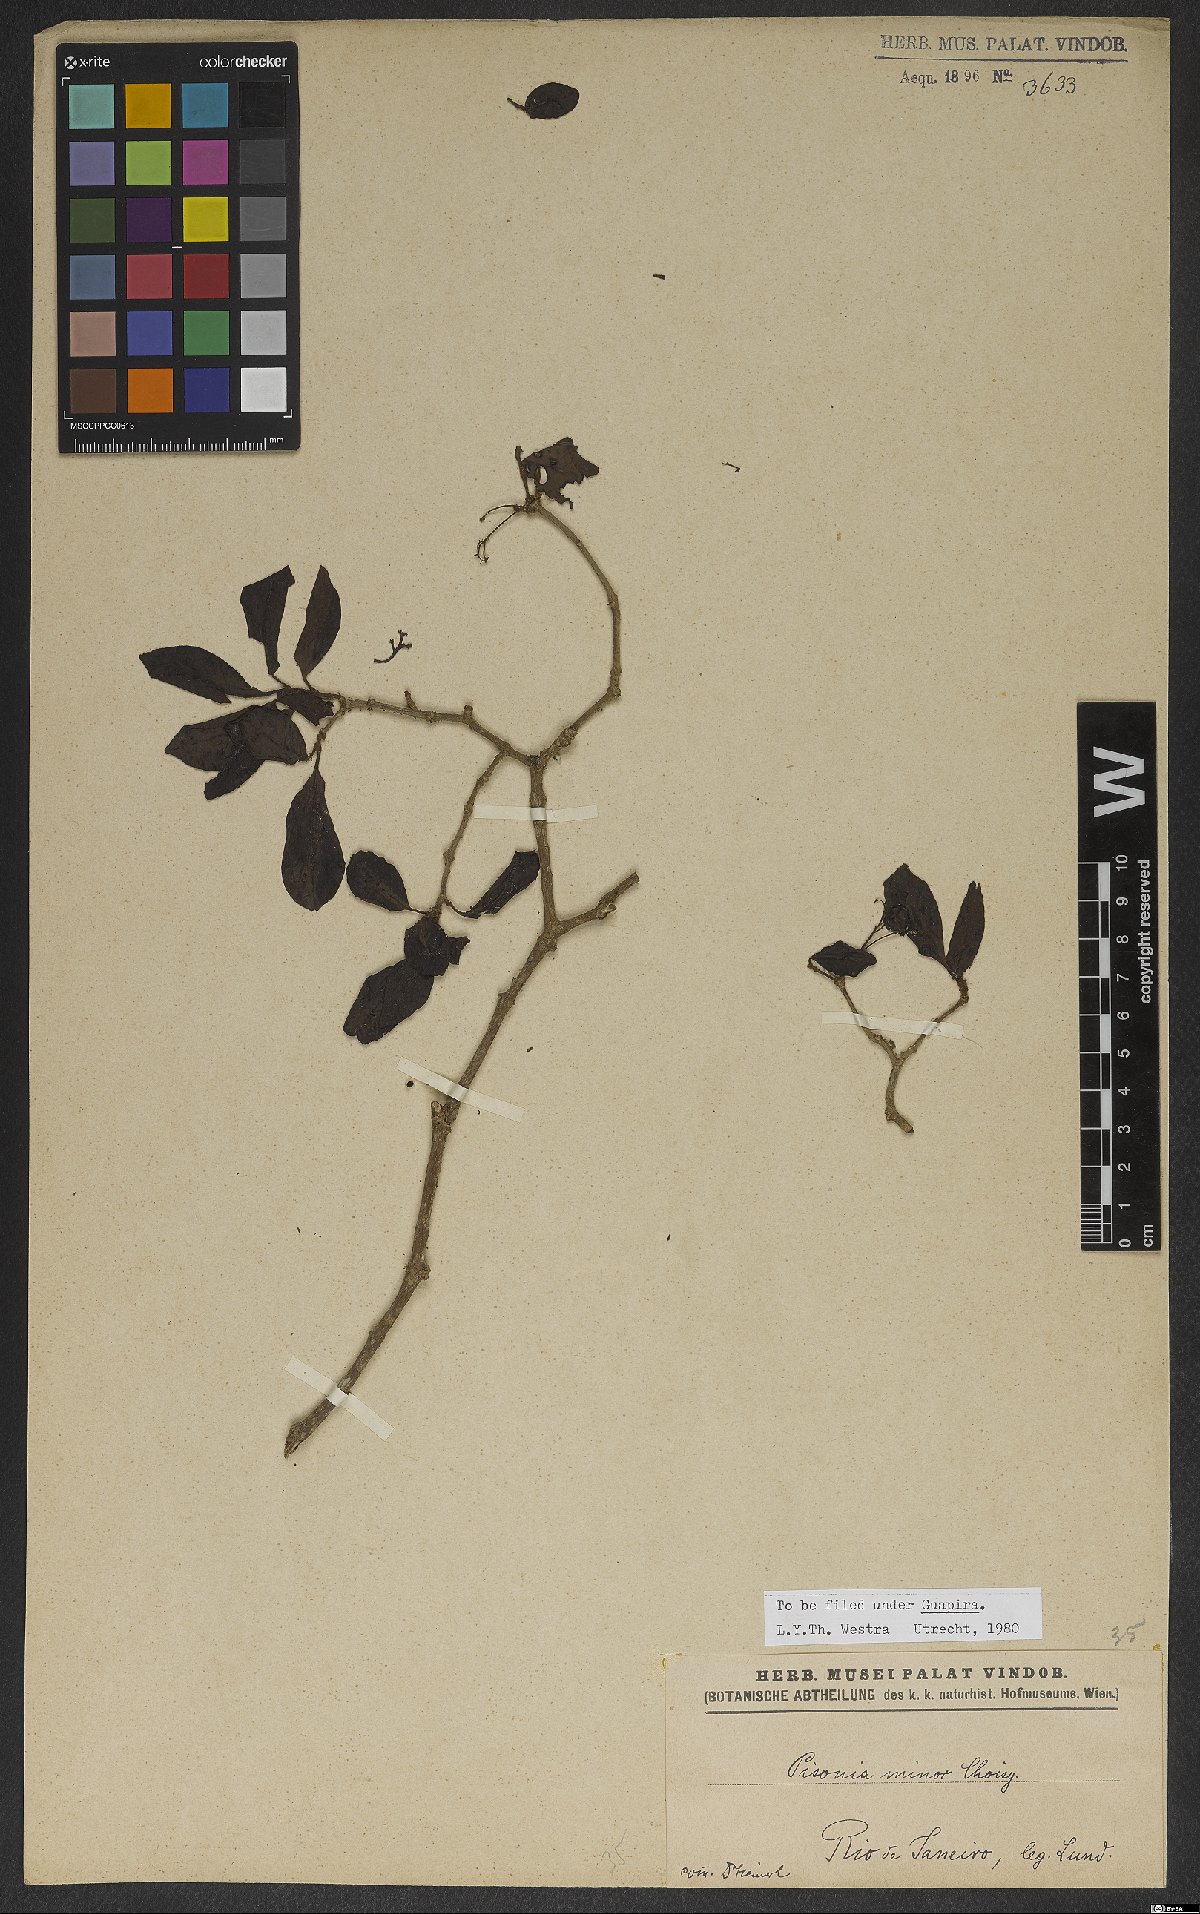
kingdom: Plantae
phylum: Tracheophyta
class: Magnoliopsida
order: Caryophyllales
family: Nyctaginaceae
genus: Pisonia
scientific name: Pisonia aculeata
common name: Cockspur vine
